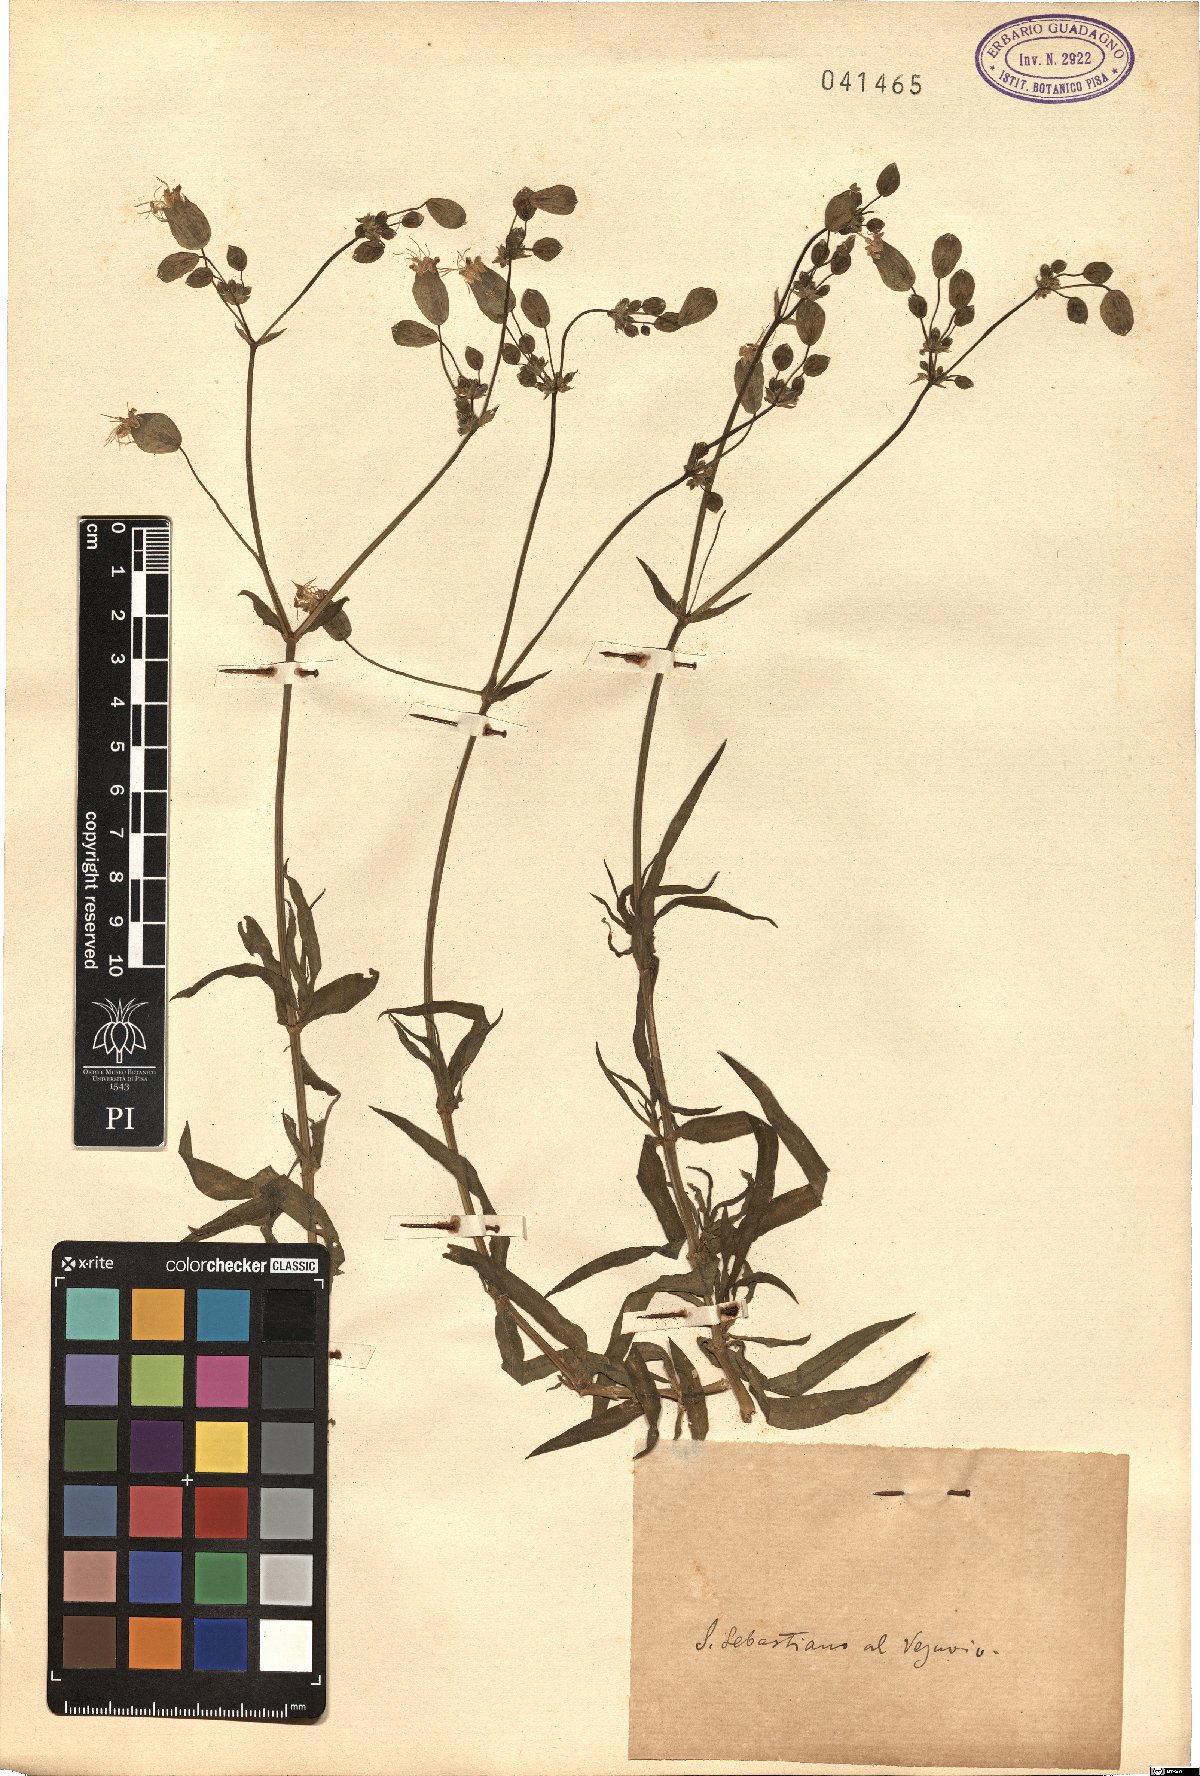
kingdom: Plantae
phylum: Tracheophyta
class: Magnoliopsida
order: Caryophyllales
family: Caryophyllaceae
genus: Silene
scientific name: Silene
